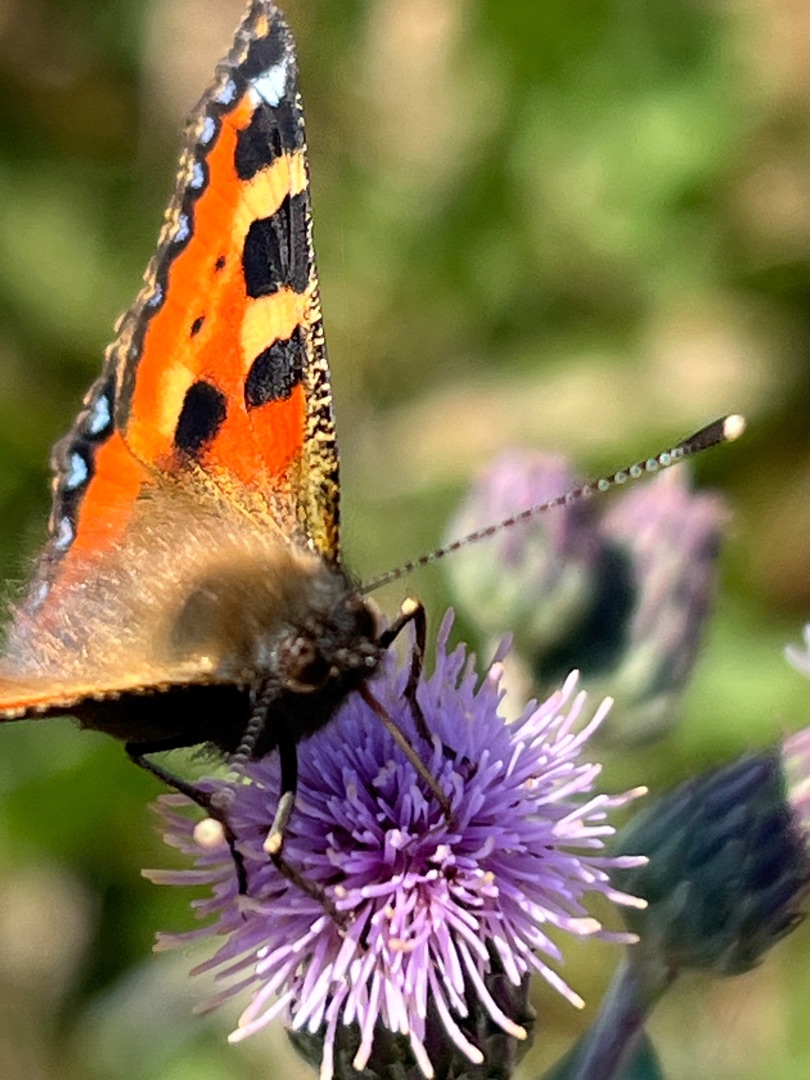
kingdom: Animalia
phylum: Arthropoda
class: Insecta
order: Lepidoptera
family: Nymphalidae
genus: Aglais
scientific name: Aglais urticae
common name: Nældens takvinge
